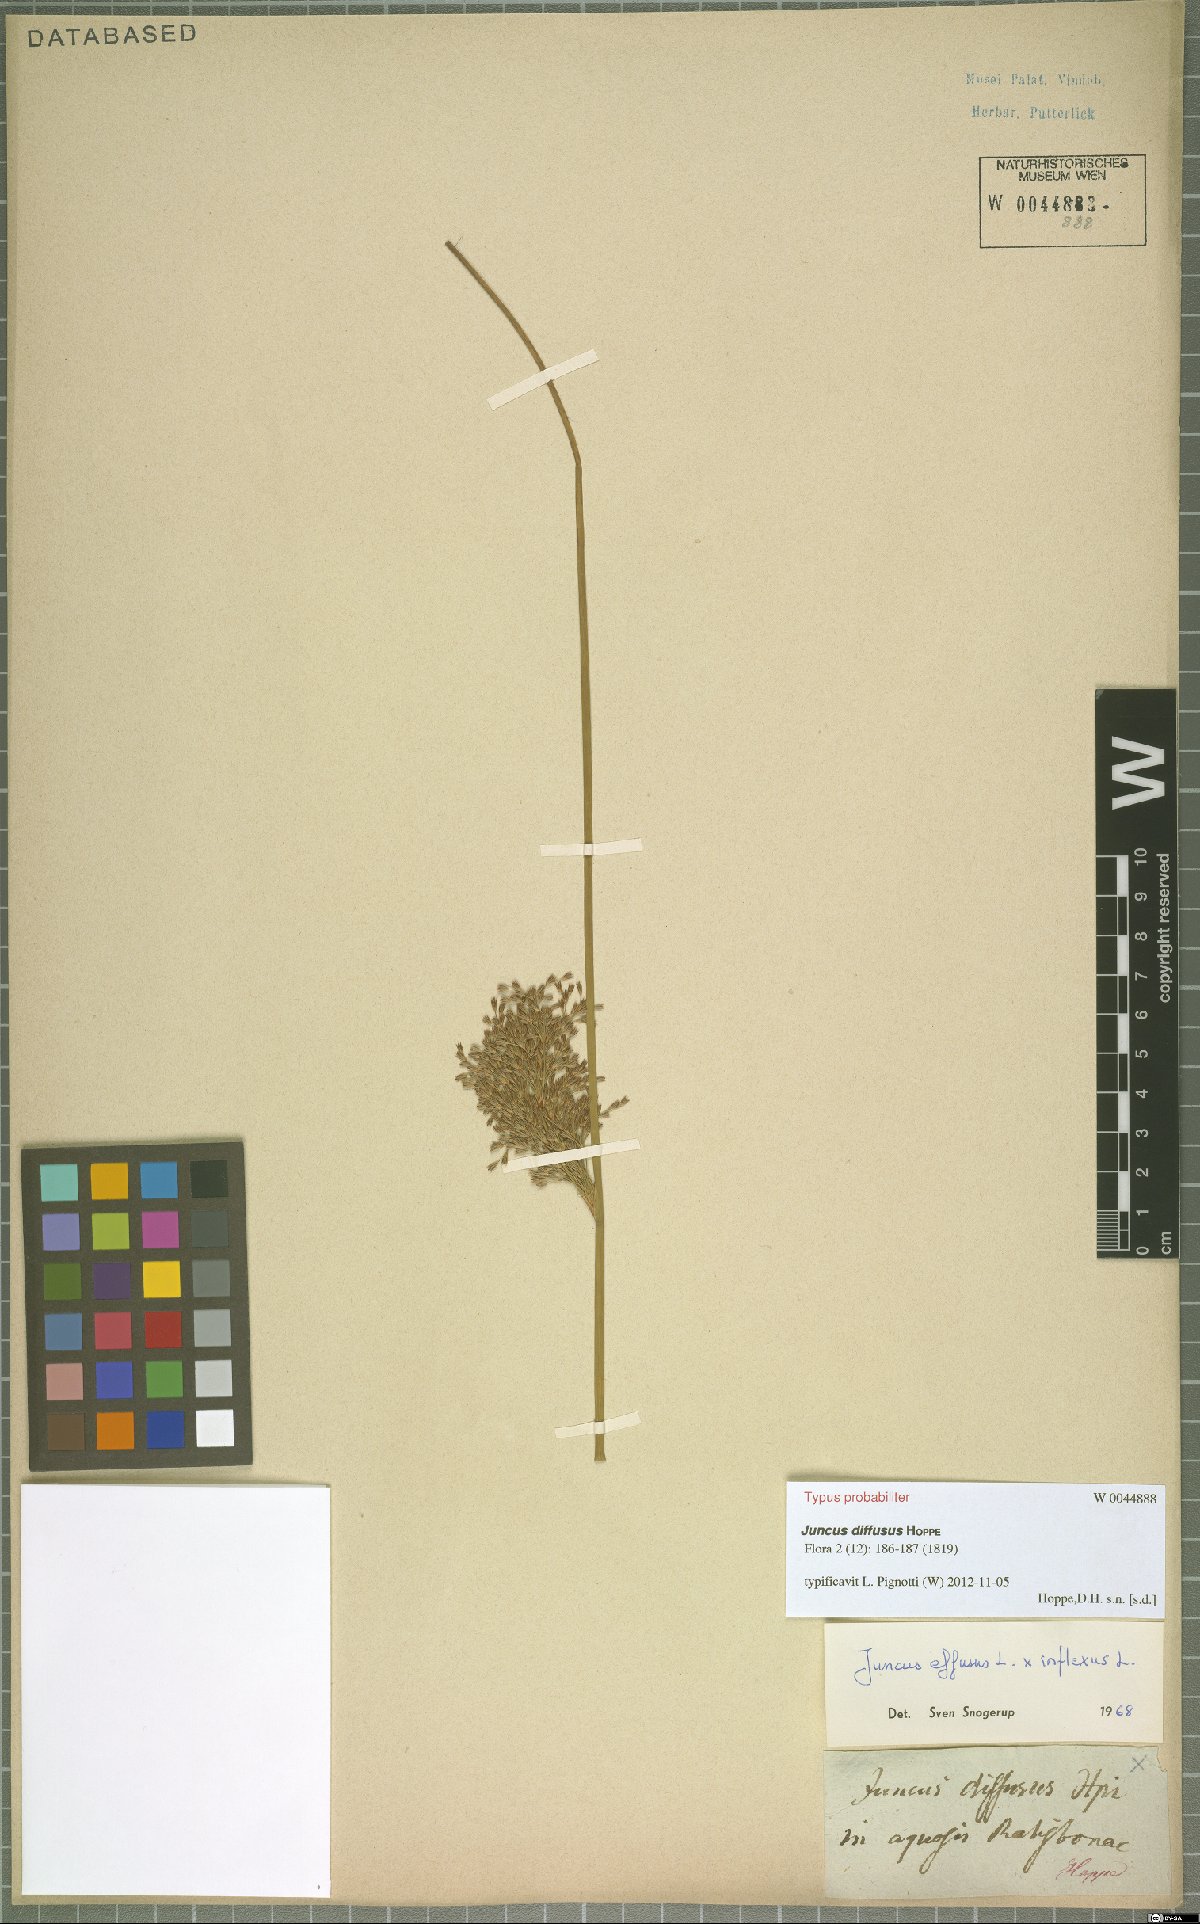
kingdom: Plantae
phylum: Tracheophyta
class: Liliopsida
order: Poales
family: Juncaceae
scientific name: Juncaceae
